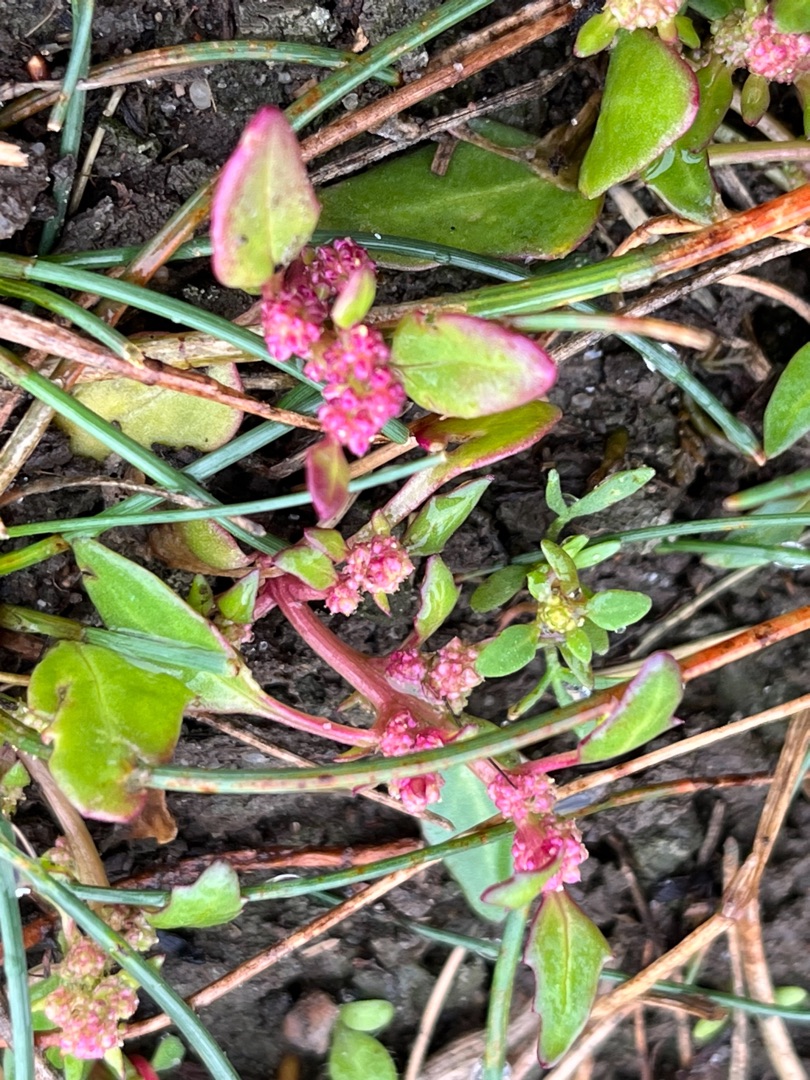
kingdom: Plantae
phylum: Tracheophyta
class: Magnoliopsida
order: Caryophyllales
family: Amaranthaceae
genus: Oxybasis
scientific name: Oxybasis chenopodioides
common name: Drue-gåsefod
